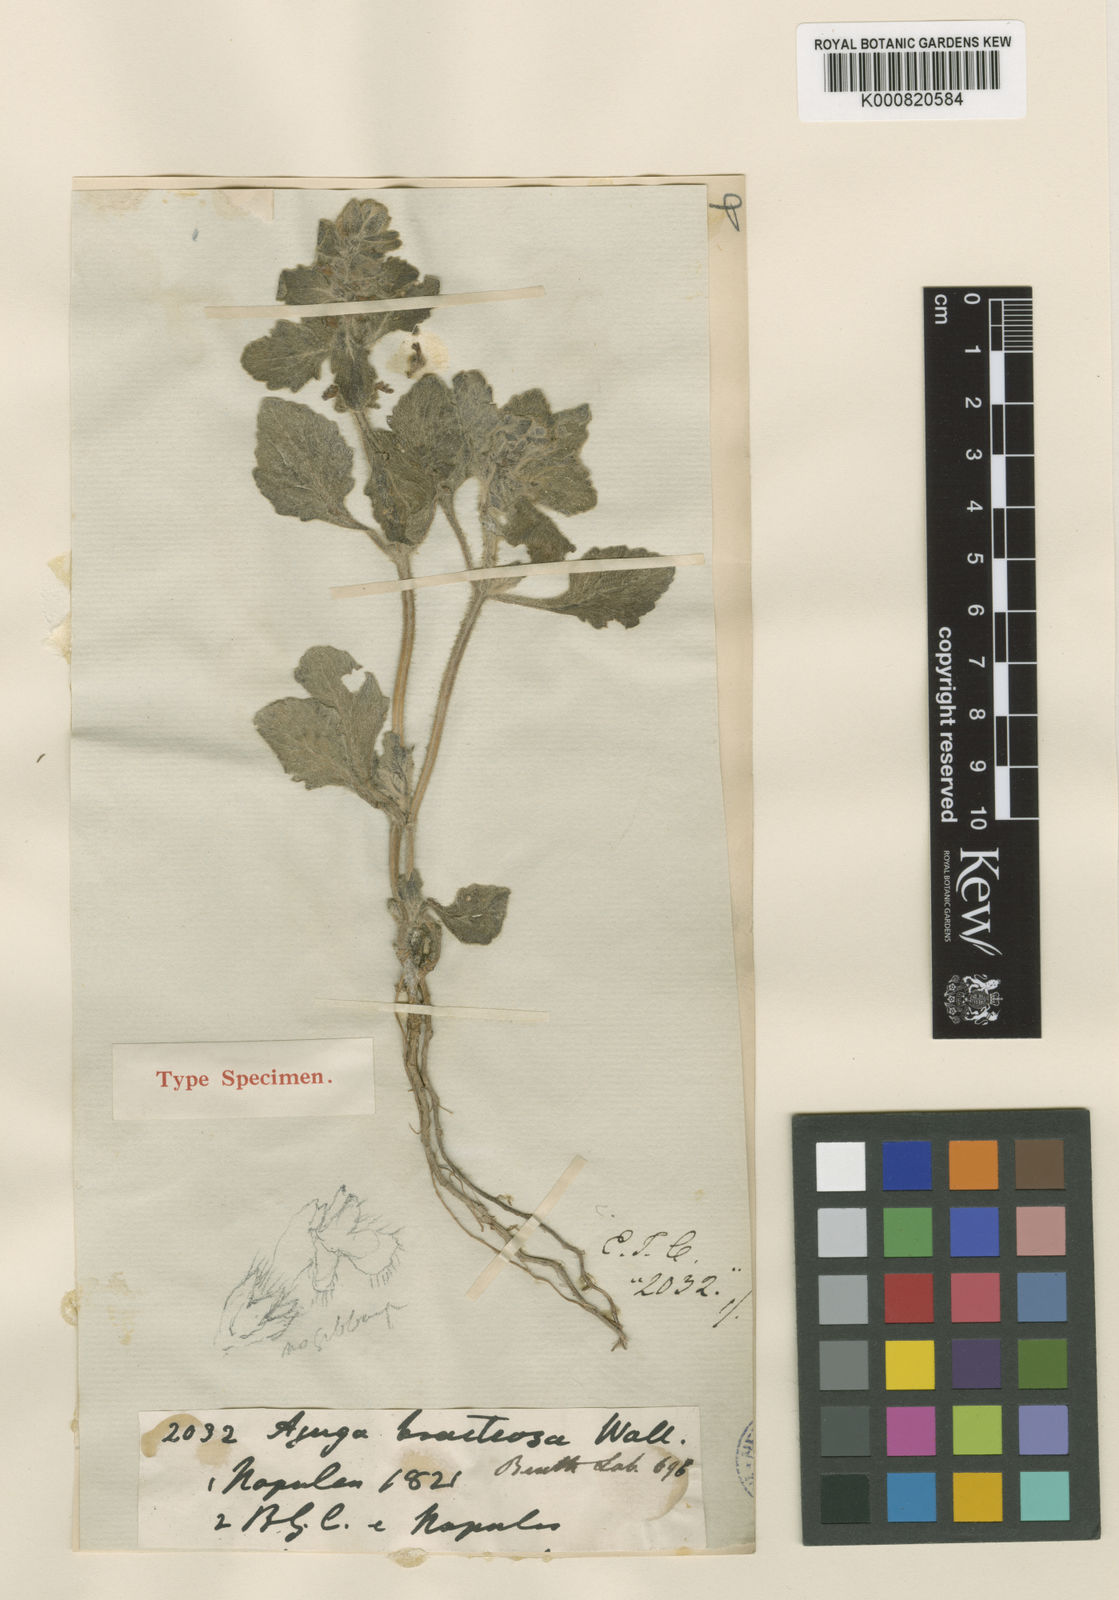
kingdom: Plantae
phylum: Tracheophyta
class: Magnoliopsida
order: Lamiales
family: Lamiaceae
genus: Ajuga
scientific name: Ajuga integrifolia
